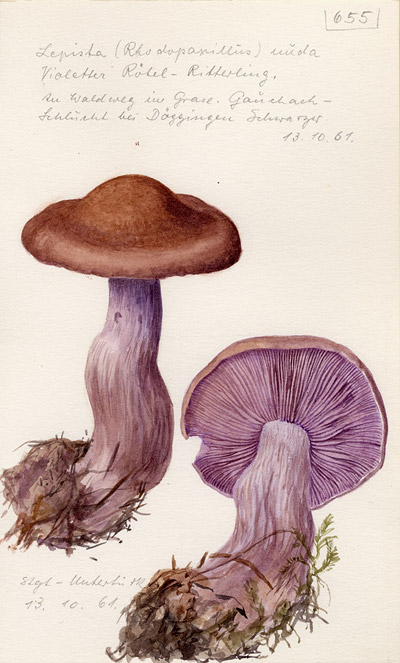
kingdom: Fungi
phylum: Basidiomycota
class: Agaricomycetes
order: Agaricales
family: Tricholomataceae
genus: Lepista
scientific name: Lepista nuda
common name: Wood blewit
